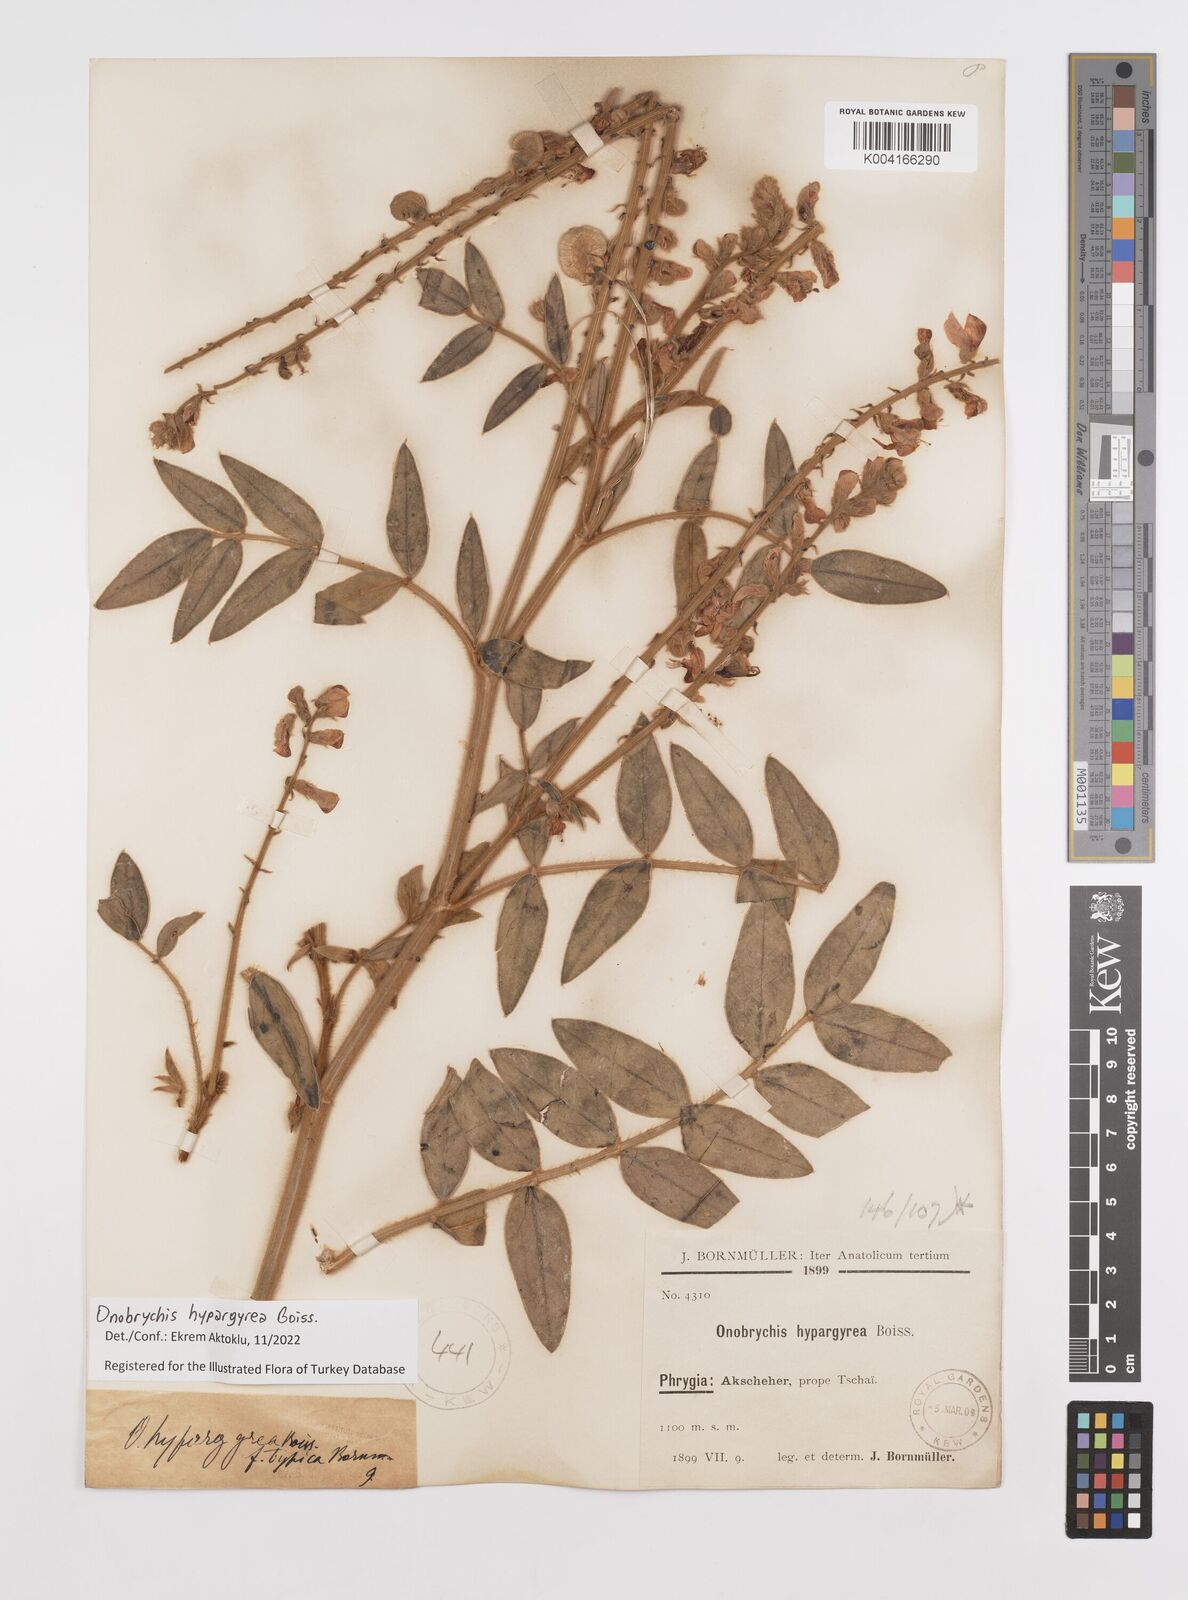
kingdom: Plantae
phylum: Tracheophyta
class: Magnoliopsida
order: Fabales
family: Fabaceae
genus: Onobrychis
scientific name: Onobrychis hypargyrea
